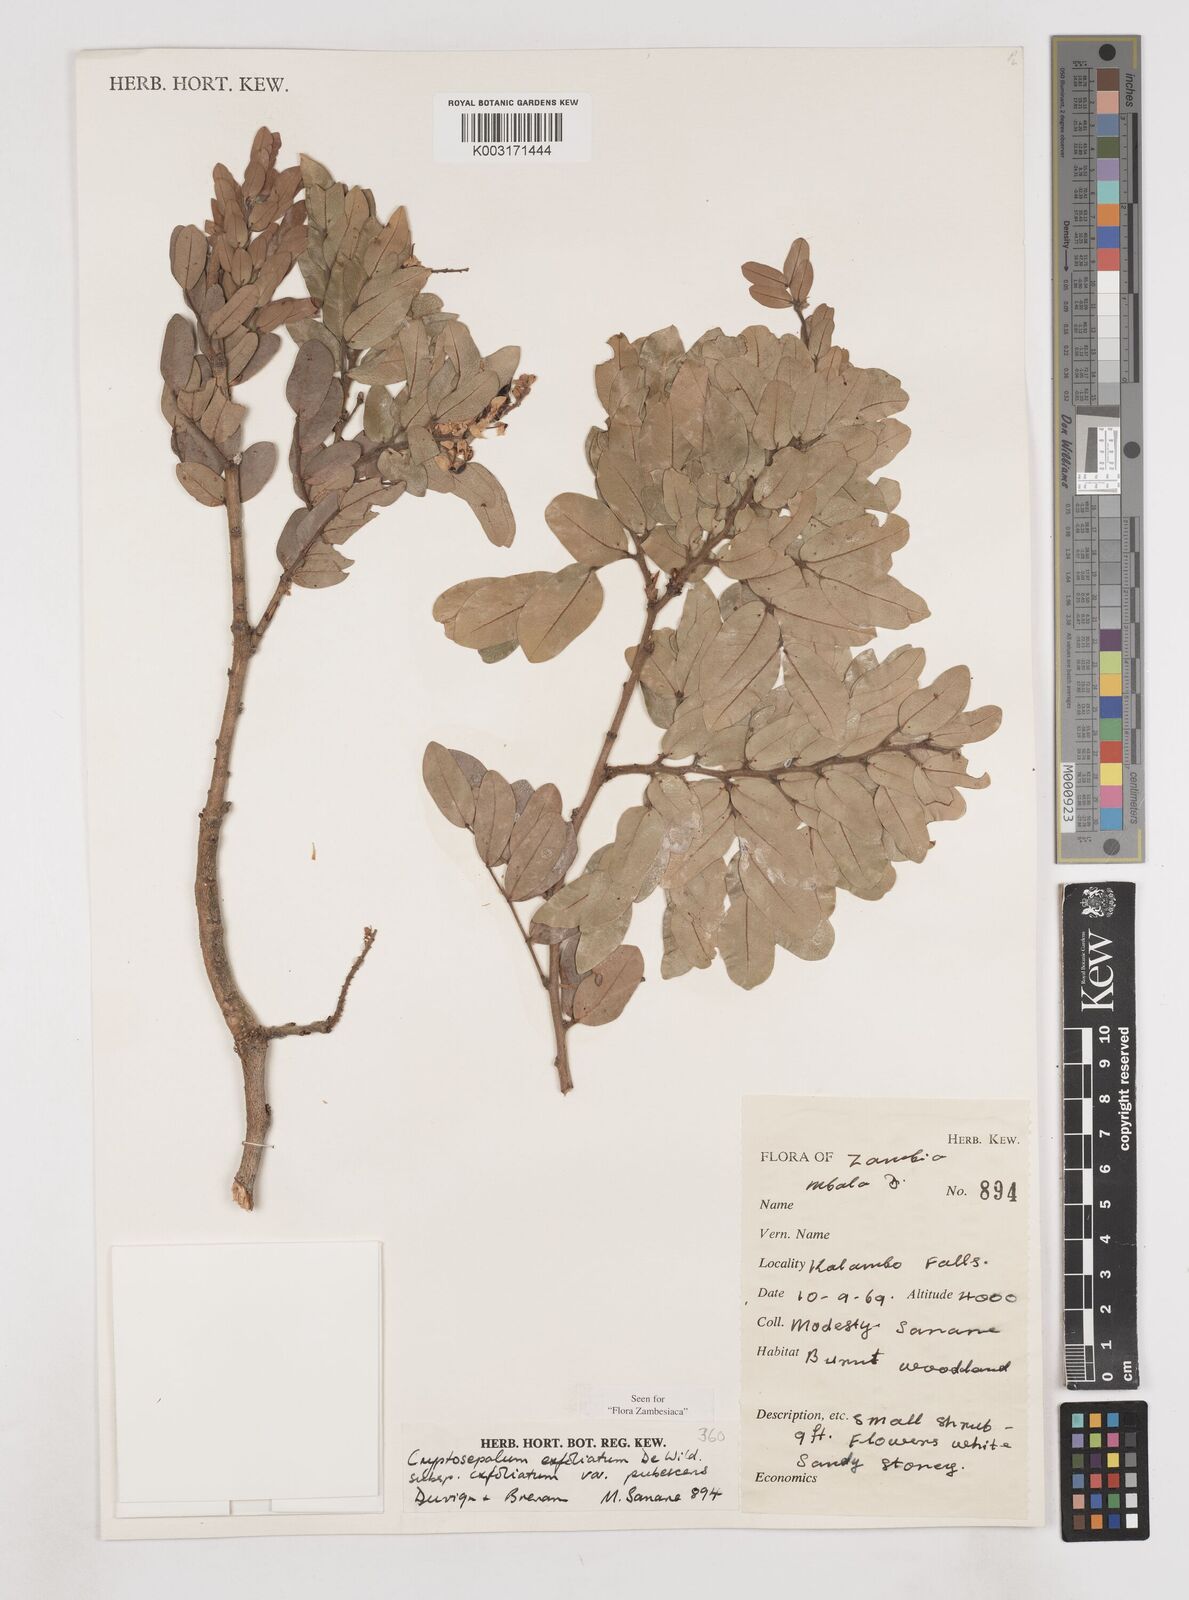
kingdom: Plantae
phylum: Tracheophyta
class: Magnoliopsida
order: Fabales
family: Fabaceae
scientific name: Fabaceae
